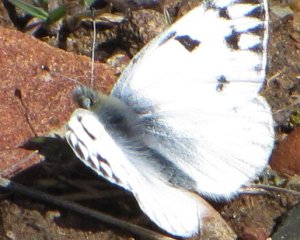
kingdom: Animalia
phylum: Arthropoda
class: Insecta
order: Lepidoptera
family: Pieridae
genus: Pontia
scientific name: Pontia occidentalis
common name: Western White
